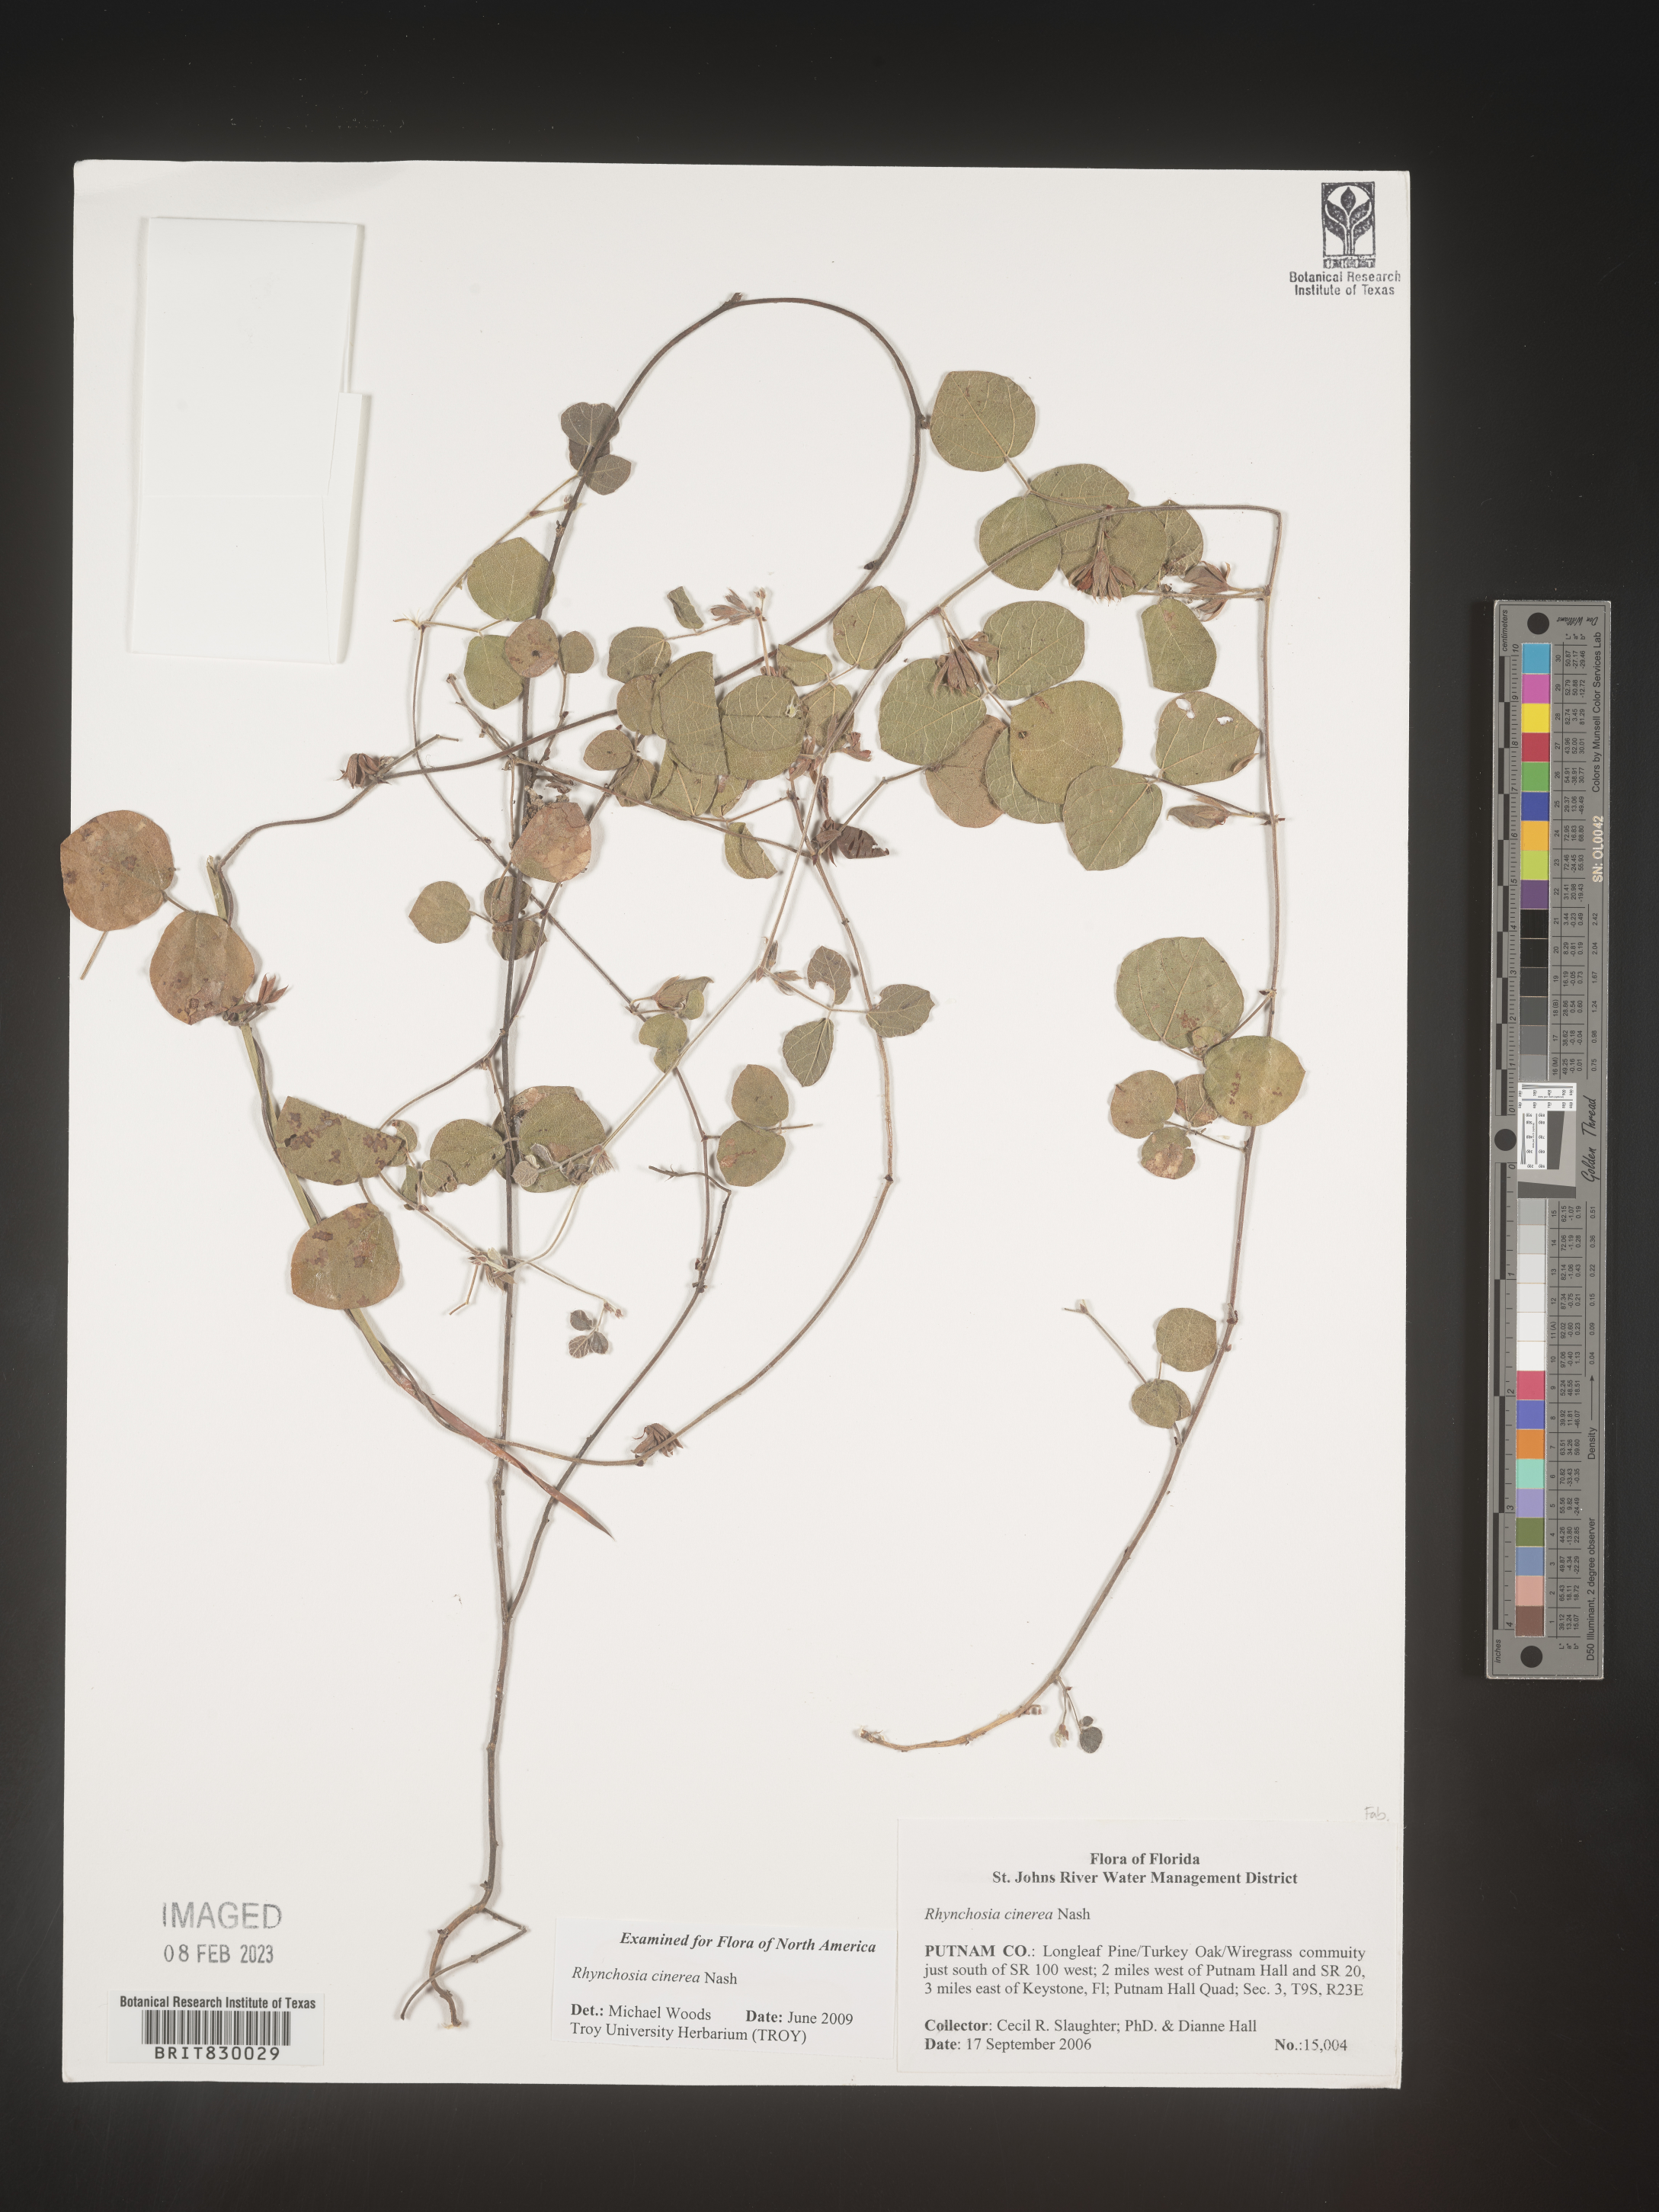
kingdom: Plantae
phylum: Tracheophyta
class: Magnoliopsida
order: Fabales
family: Fabaceae
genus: Rhynchosia
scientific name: Rhynchosia
